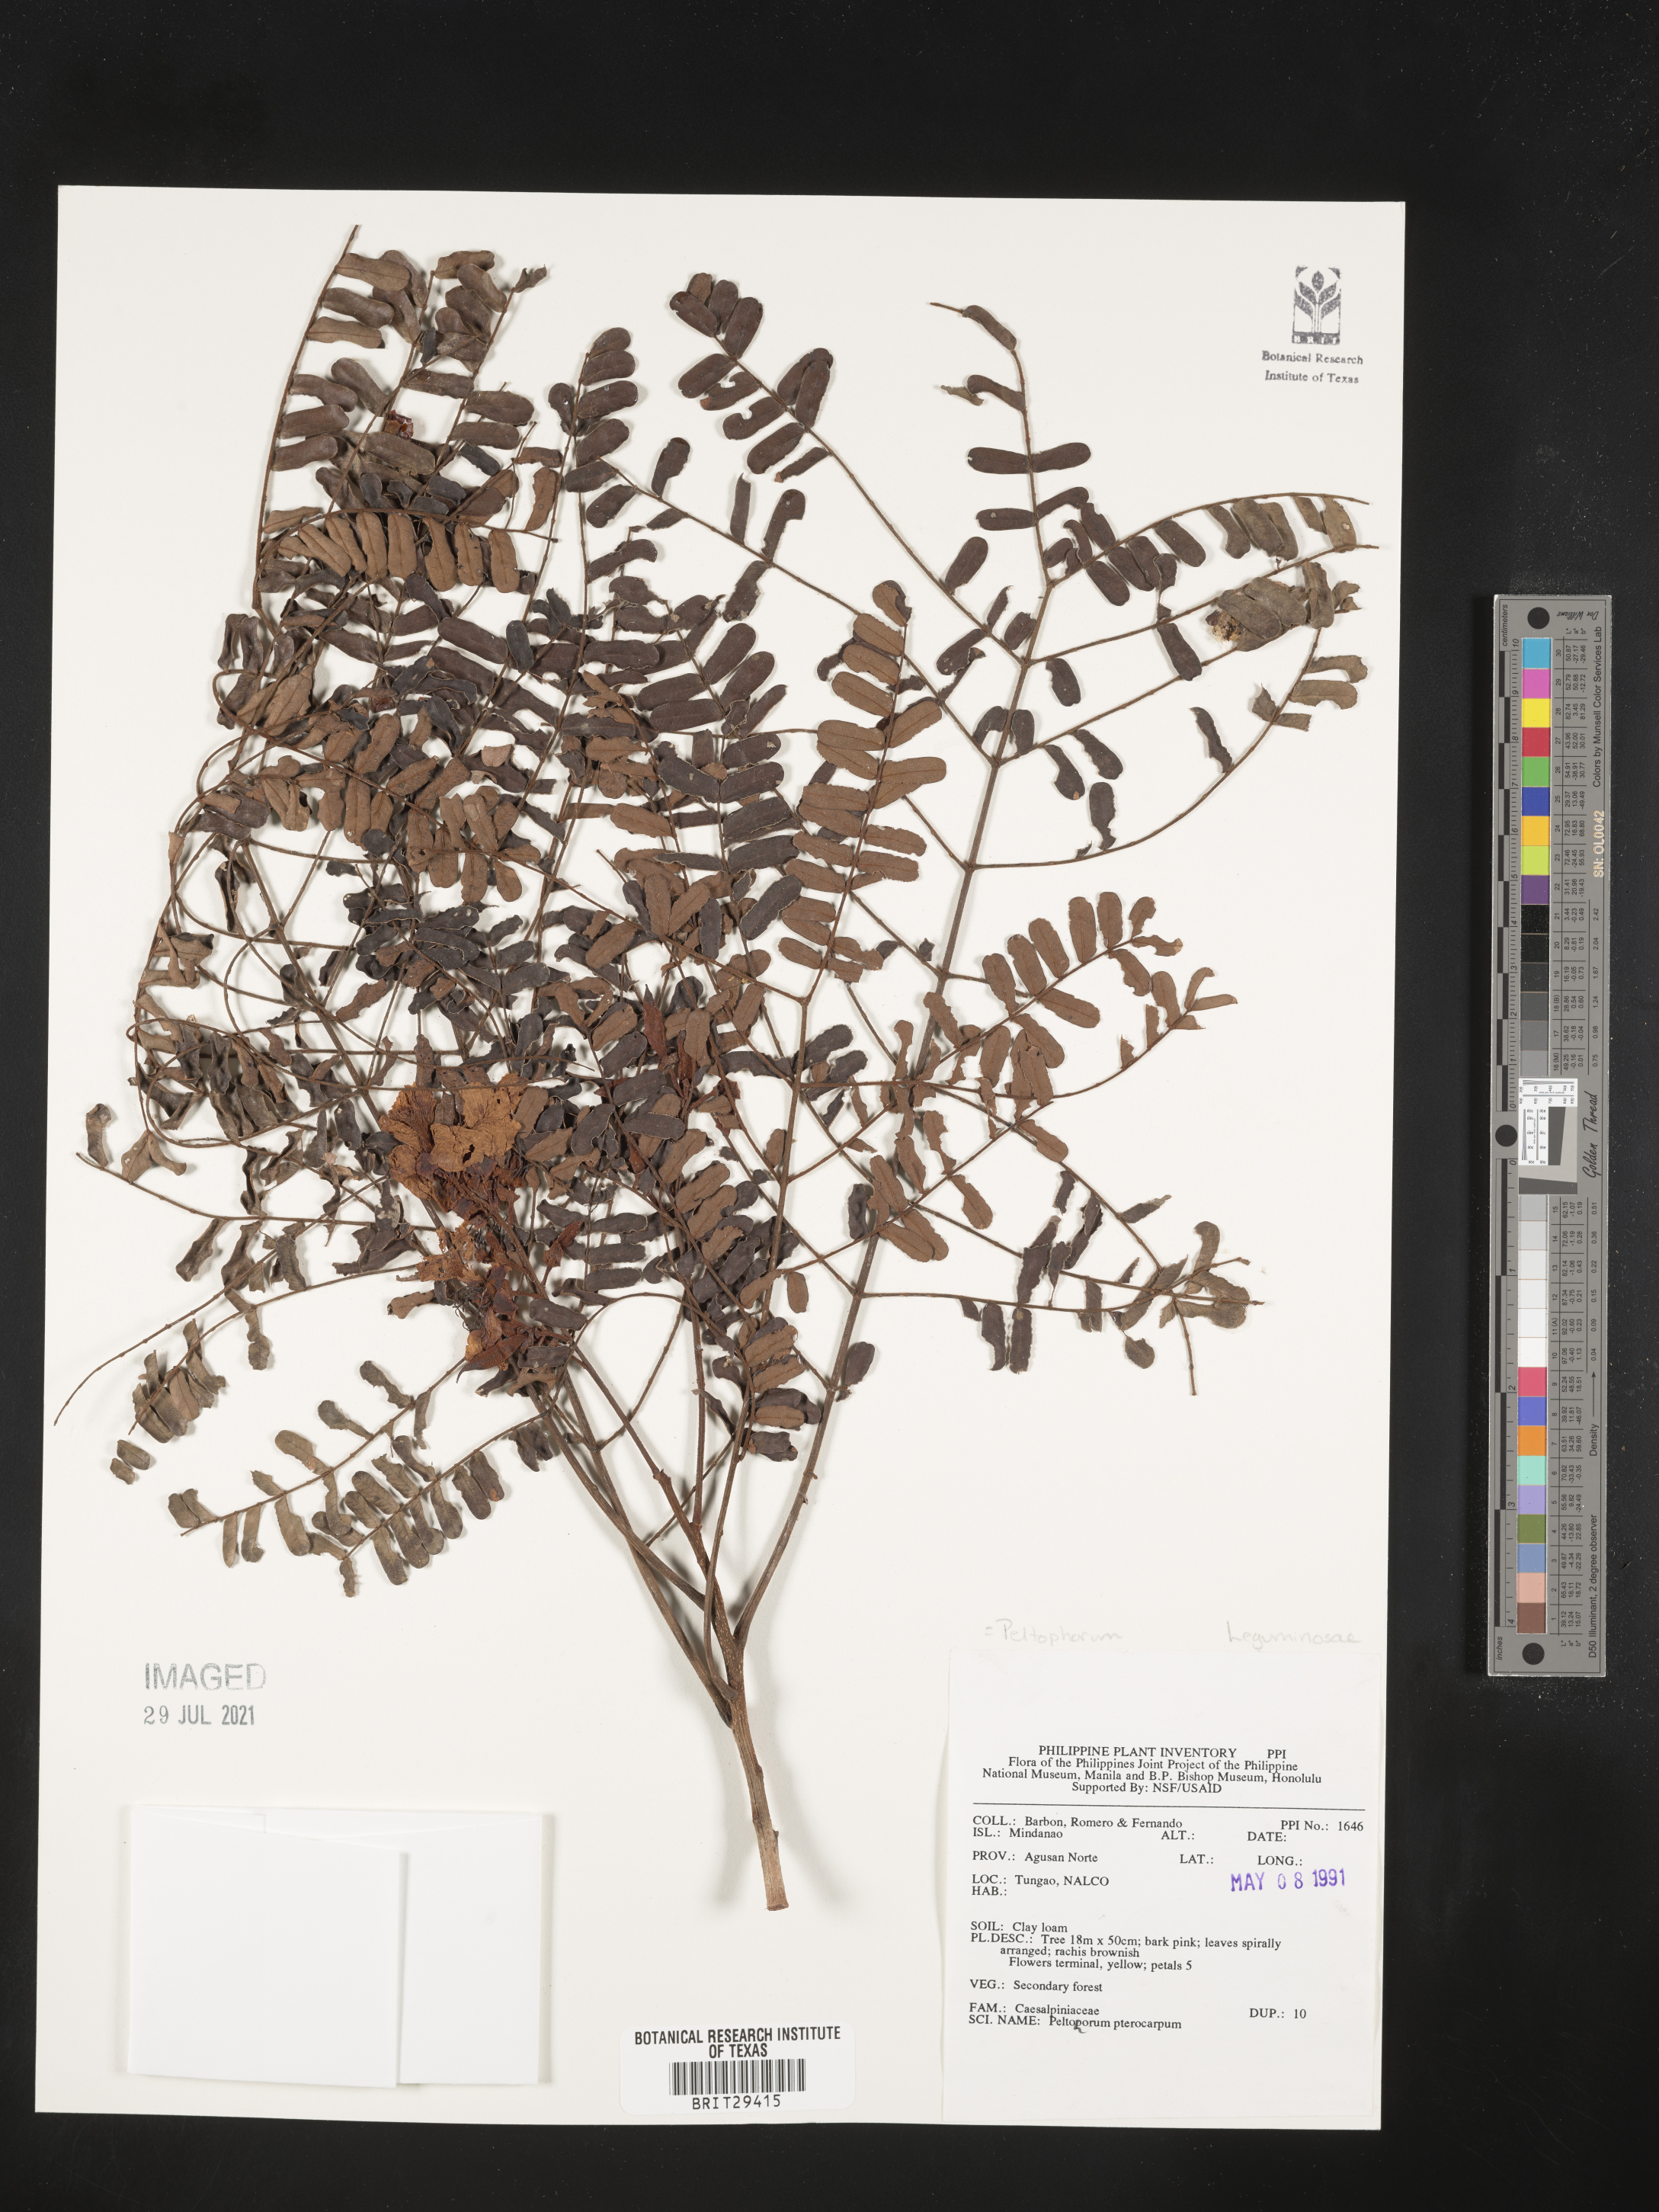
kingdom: Plantae
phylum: Tracheophyta
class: Magnoliopsida
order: Fabales
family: Fabaceae
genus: Peltophorum
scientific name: Peltophorum pterocarpum
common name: Yellow flame
